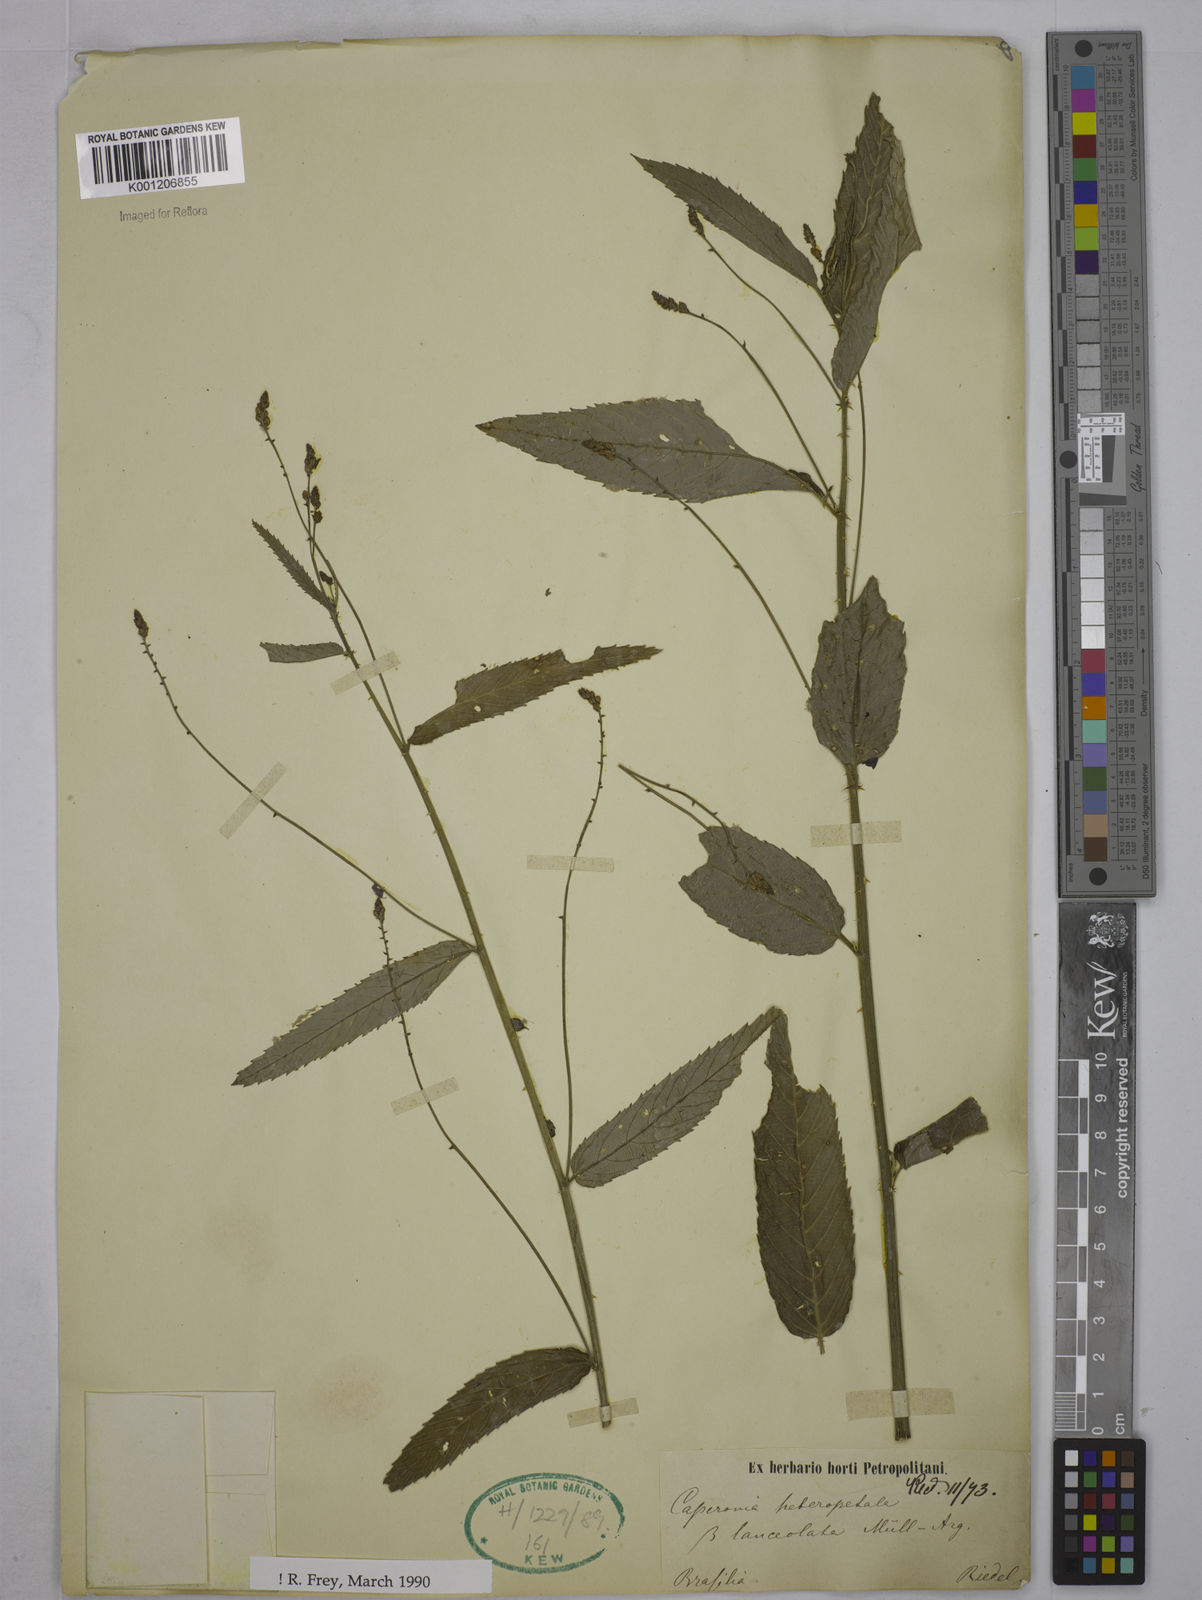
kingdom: Plantae
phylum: Tracheophyta
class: Magnoliopsida
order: Malpighiales
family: Euphorbiaceae
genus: Caperonia
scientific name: Caperonia heteropetala
